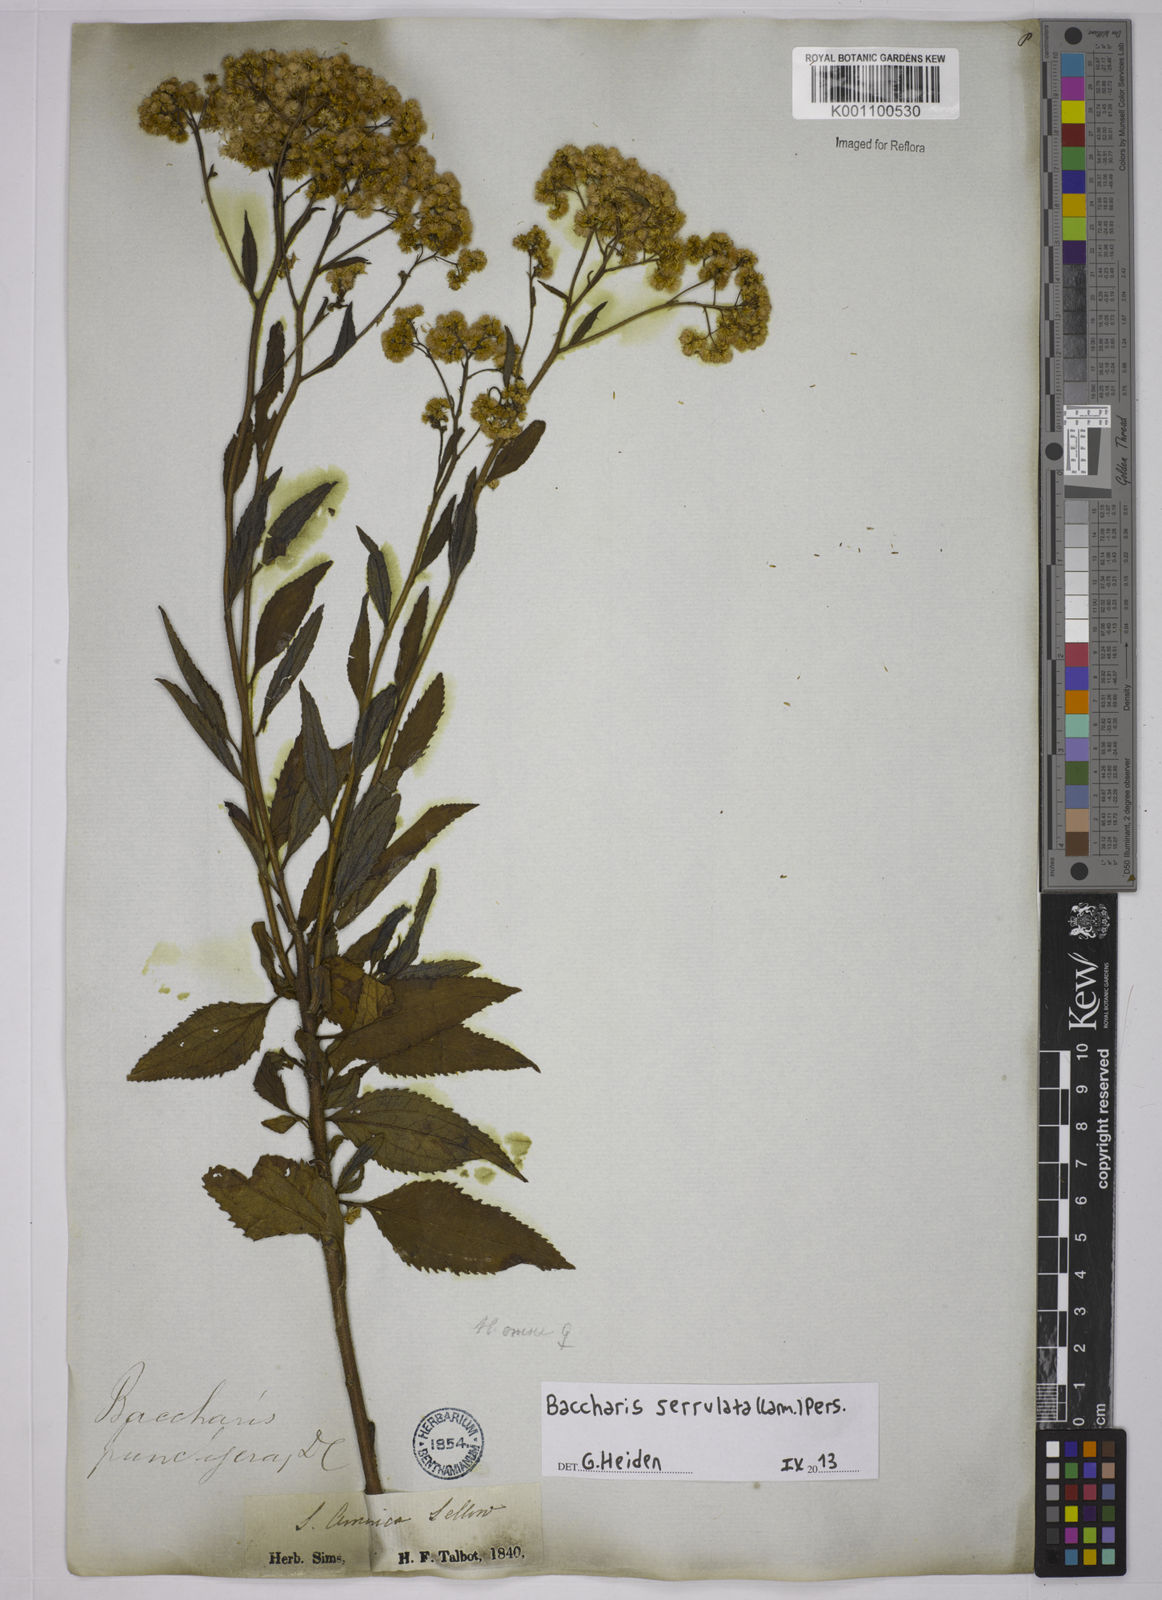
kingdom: Plantae
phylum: Tracheophyta
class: Magnoliopsida
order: Asterales
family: Asteraceae
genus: Baccharis
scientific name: Baccharis serrulata
